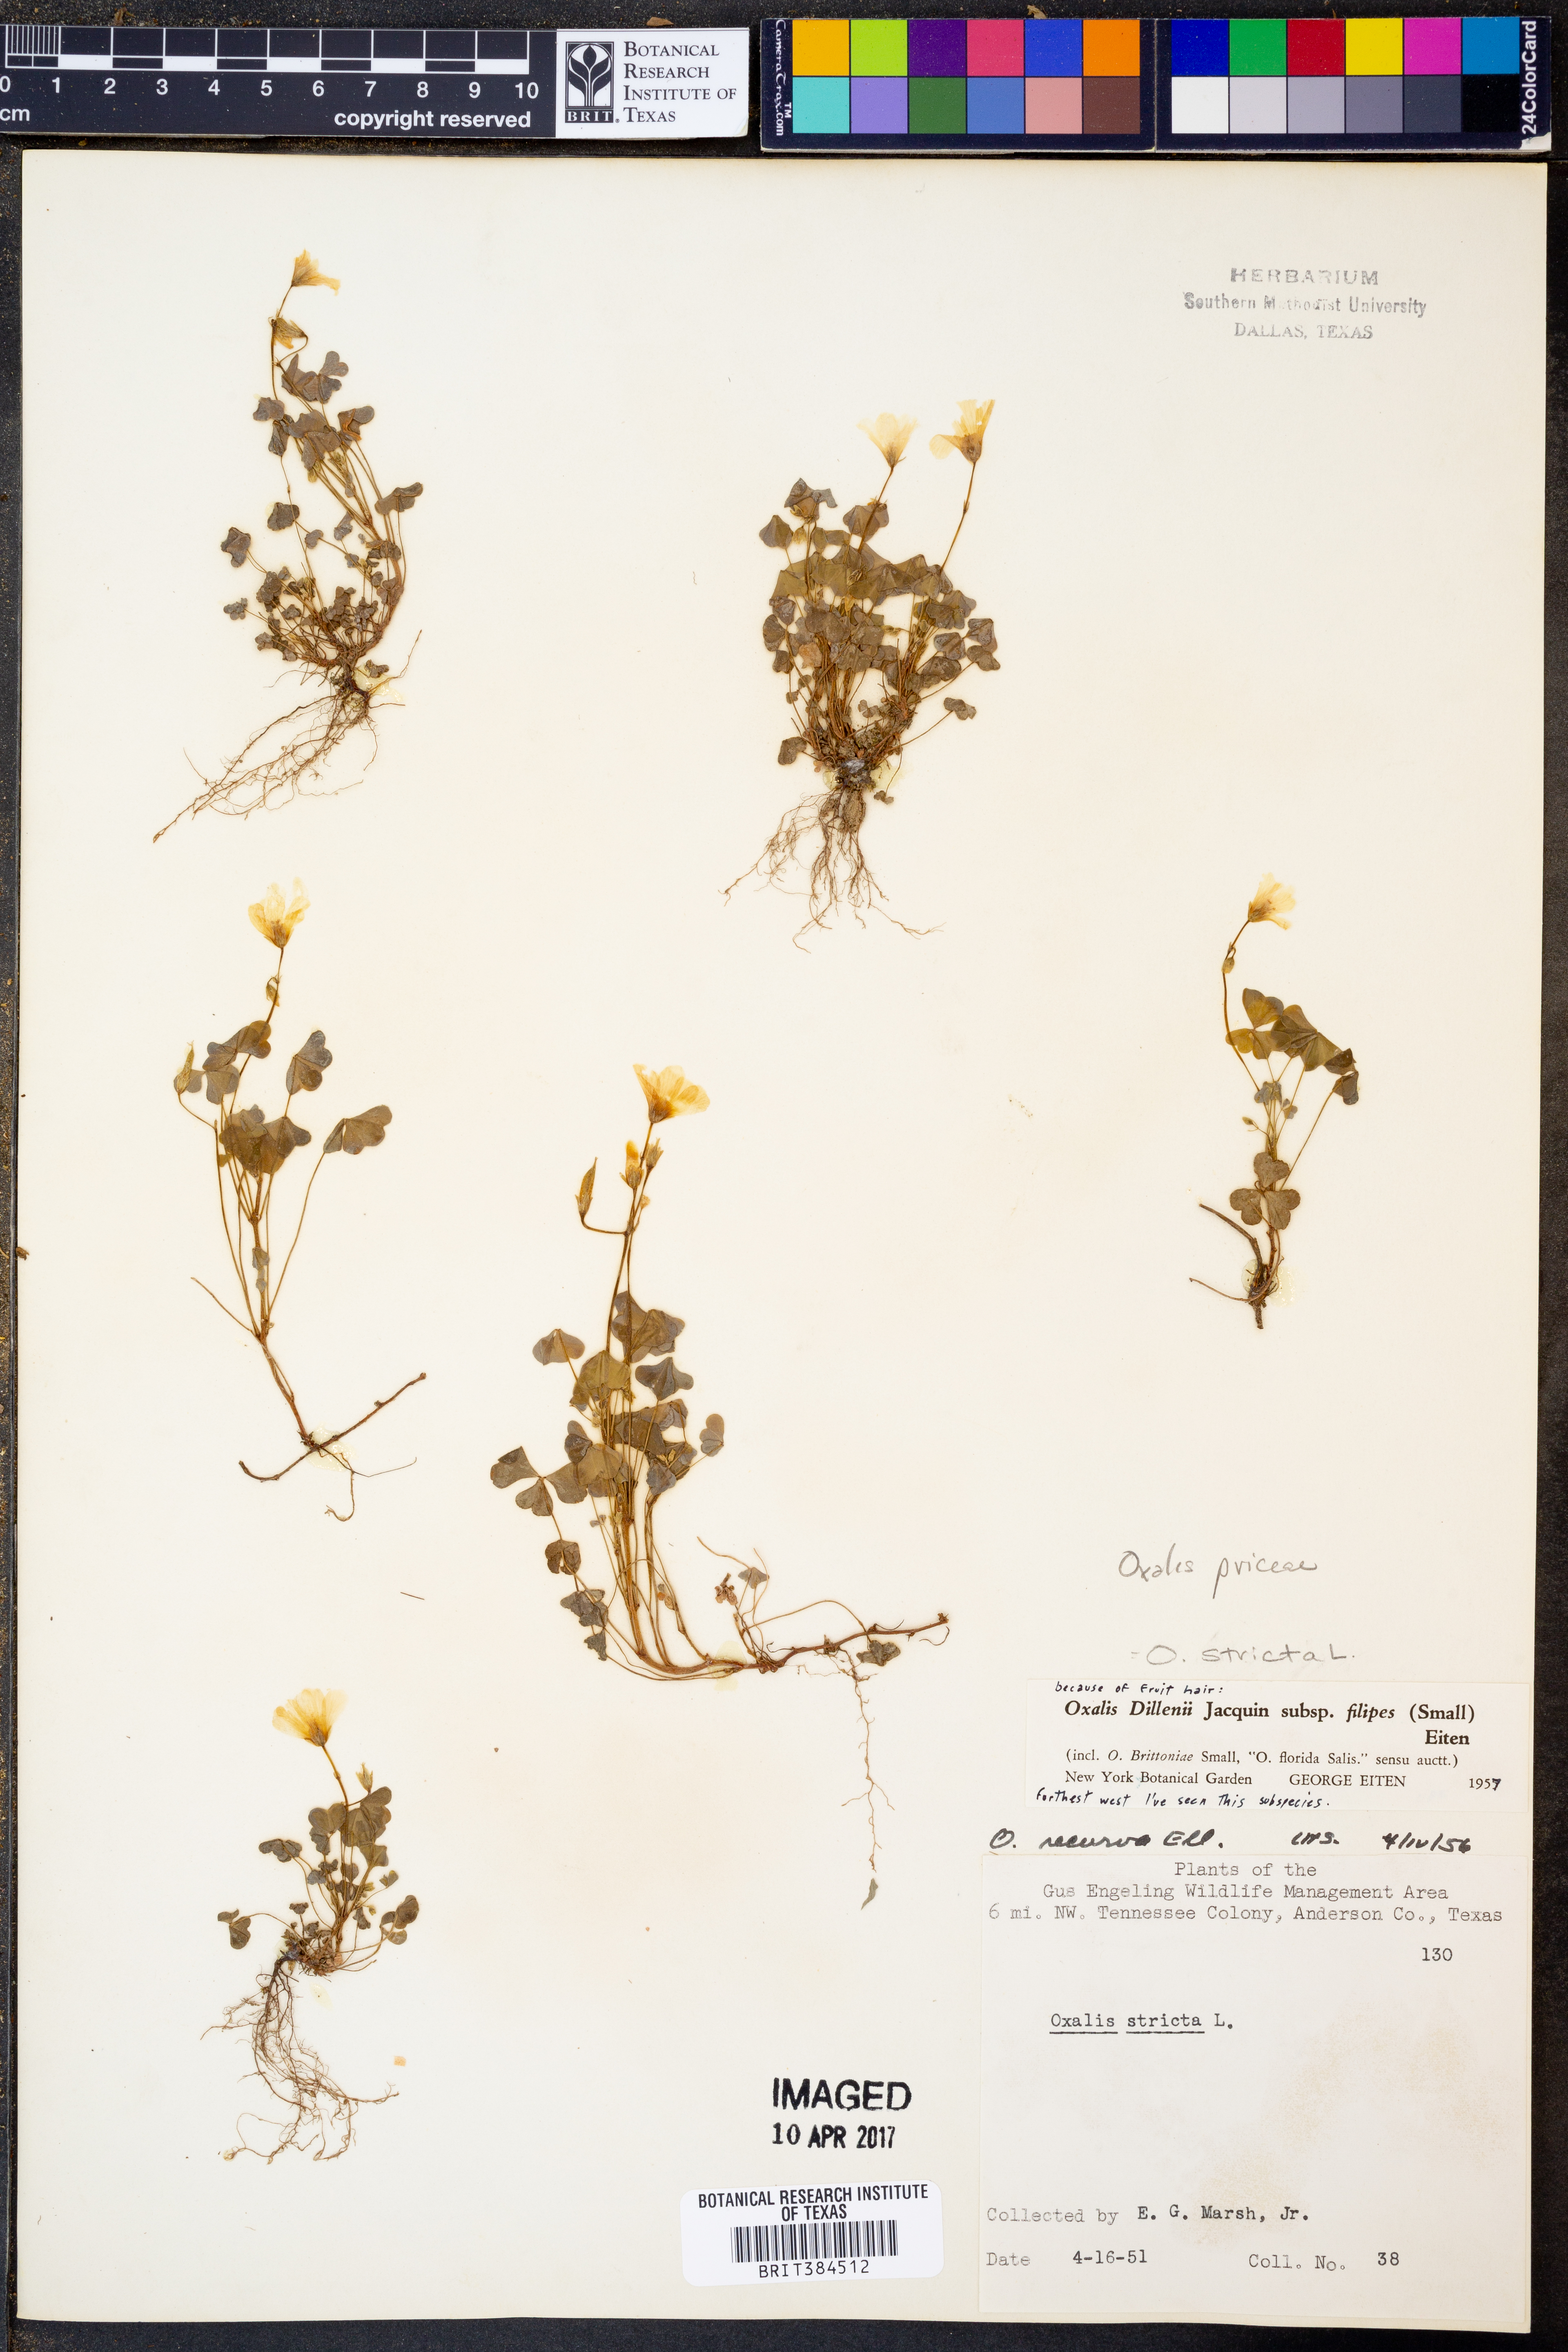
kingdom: Plantae
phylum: Tracheophyta
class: Magnoliopsida
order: Oxalidales
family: Oxalidaceae
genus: Oxalis
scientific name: Oxalis macrantha
